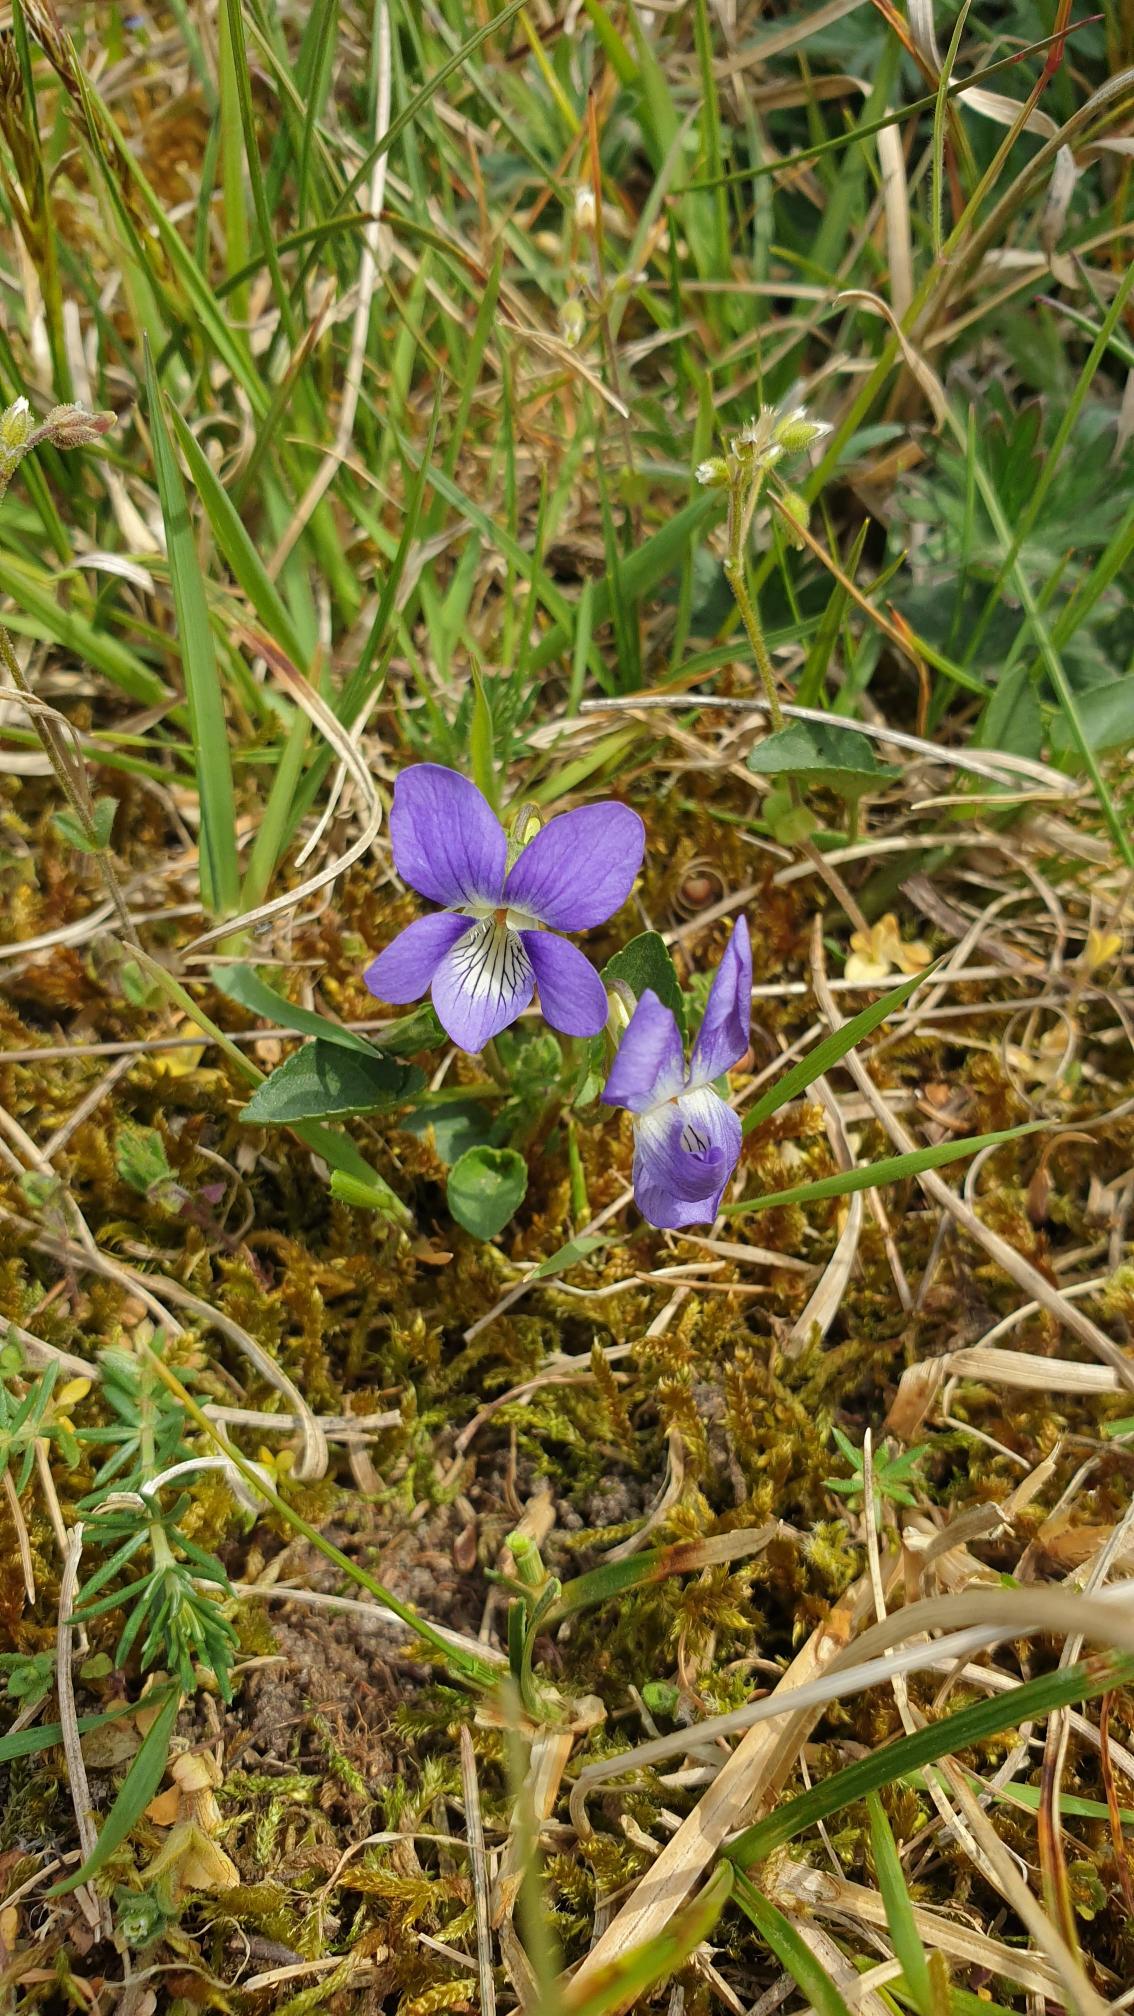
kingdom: Plantae
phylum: Tracheophyta
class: Magnoliopsida
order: Malpighiales
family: Violaceae
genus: Viola
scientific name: Viola canina
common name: Hunde-viol
